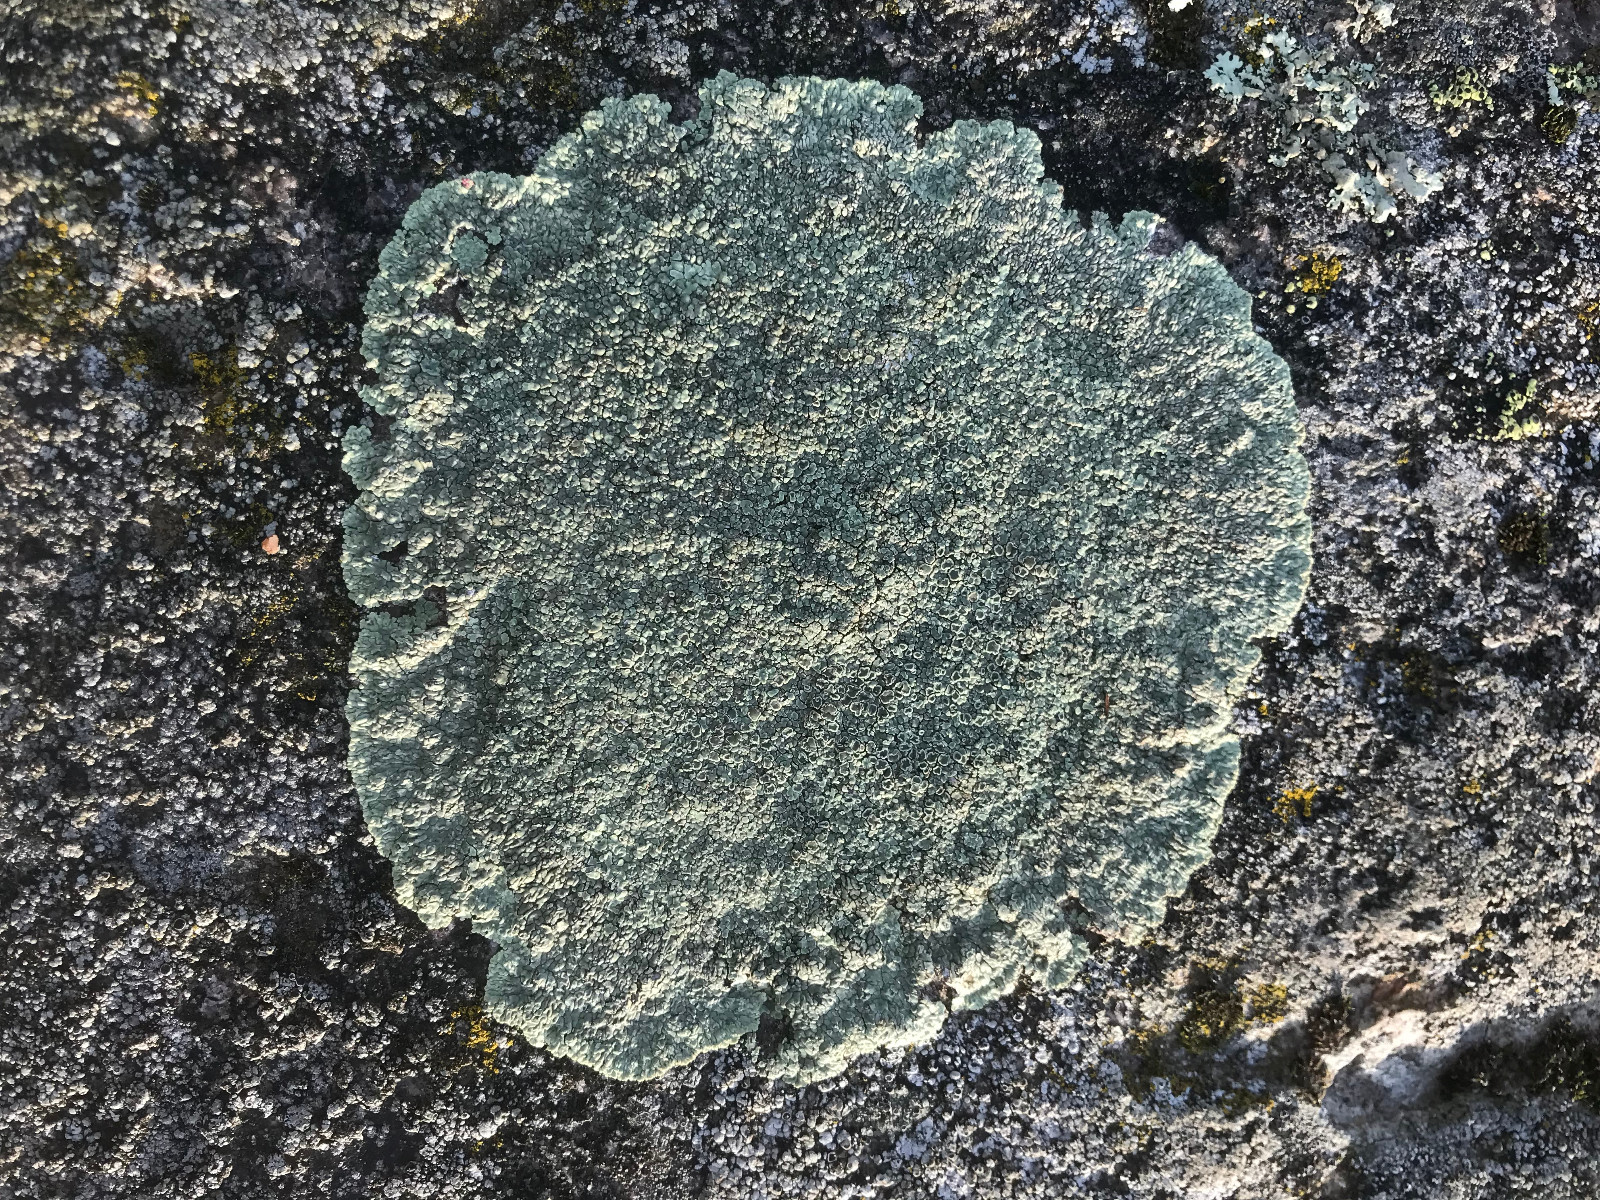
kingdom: Fungi
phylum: Ascomycota
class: Lecanoromycetes
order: Lecanorales
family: Lecanoraceae
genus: Protoparmeliopsis
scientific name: Protoparmeliopsis
